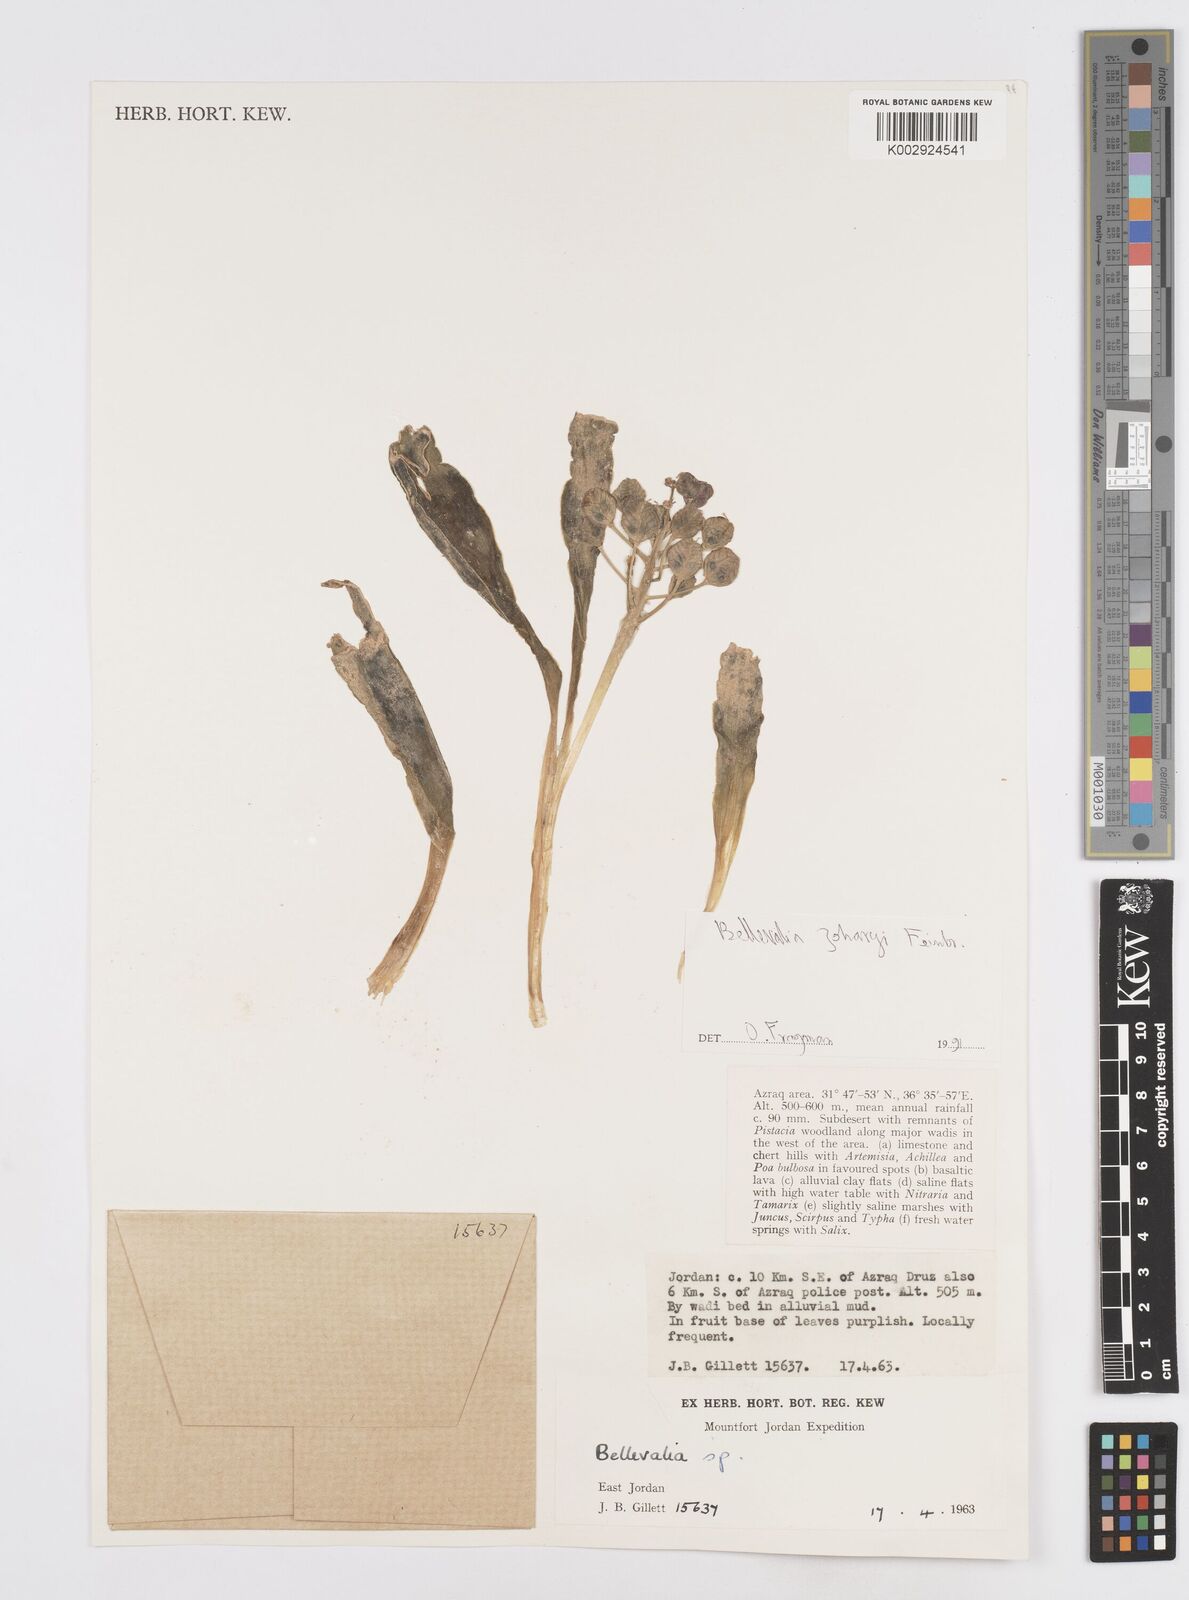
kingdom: Plantae
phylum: Tracheophyta
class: Liliopsida
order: Asparagales
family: Asparagaceae
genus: Bellevalia
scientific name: Bellevalia stepporum
